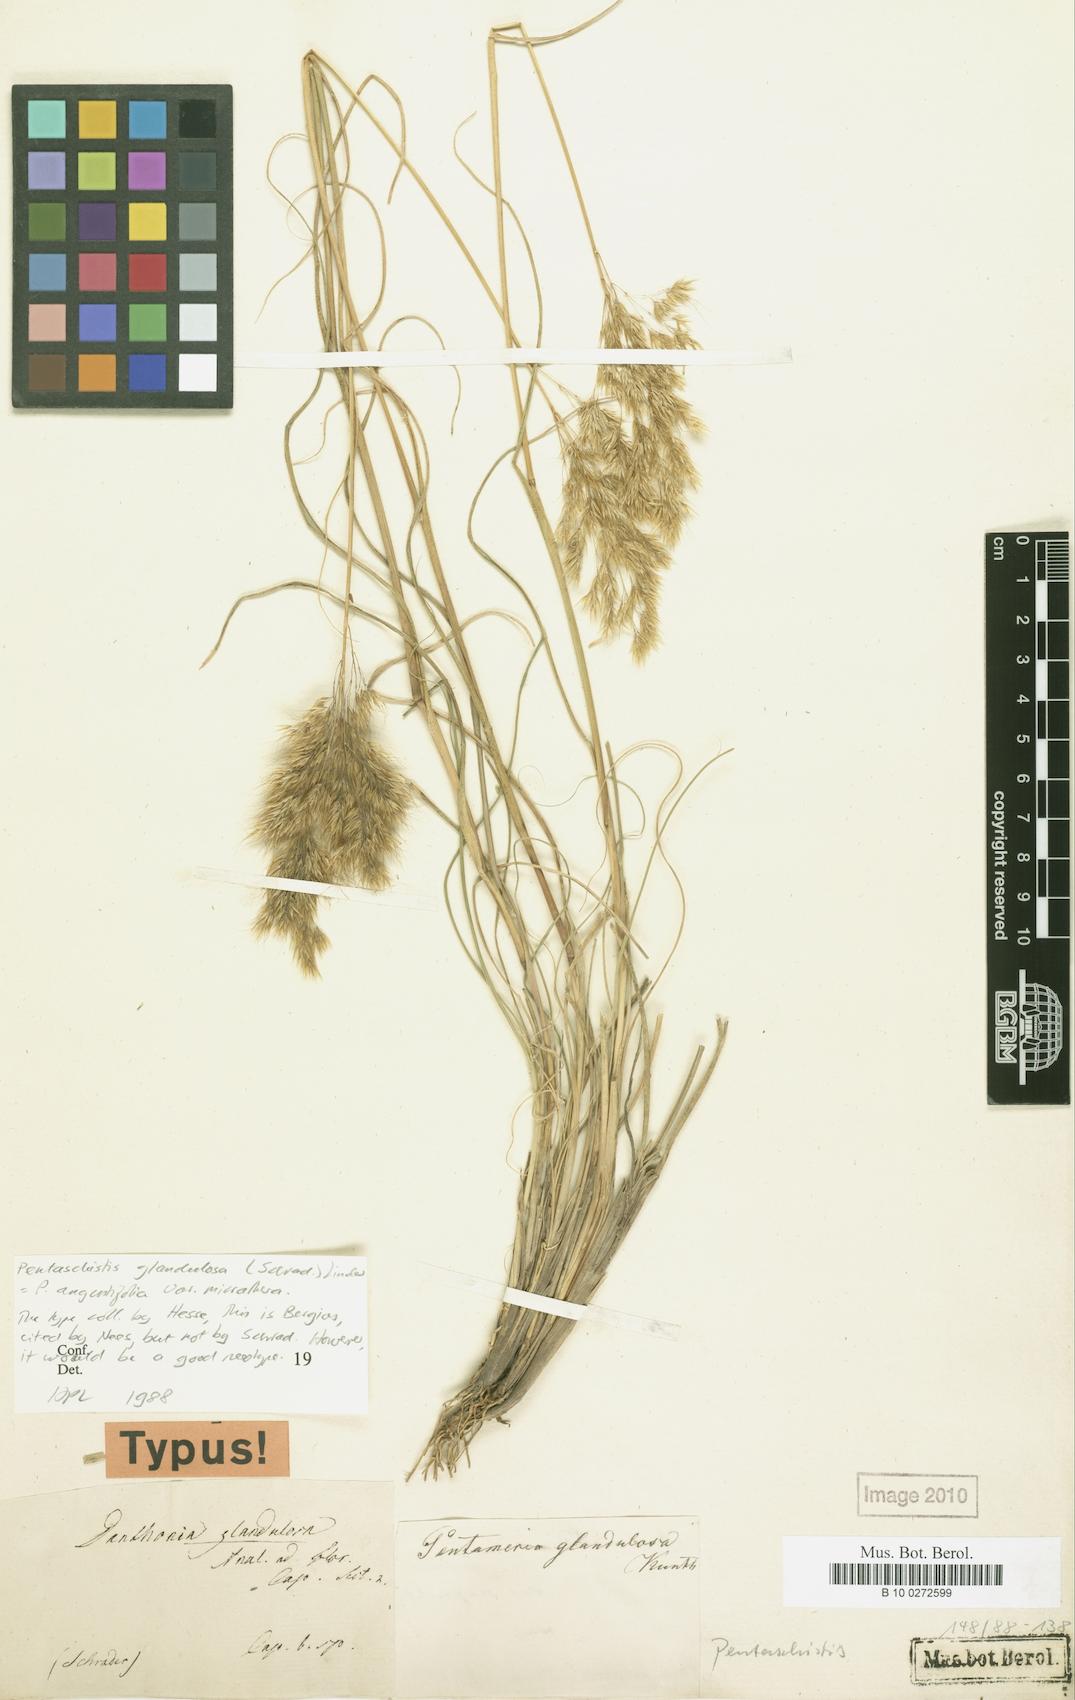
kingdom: Plantae
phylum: Tracheophyta
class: Liliopsida
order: Poales
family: Poaceae
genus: Pentameris
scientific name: Pentameris glandulosa
